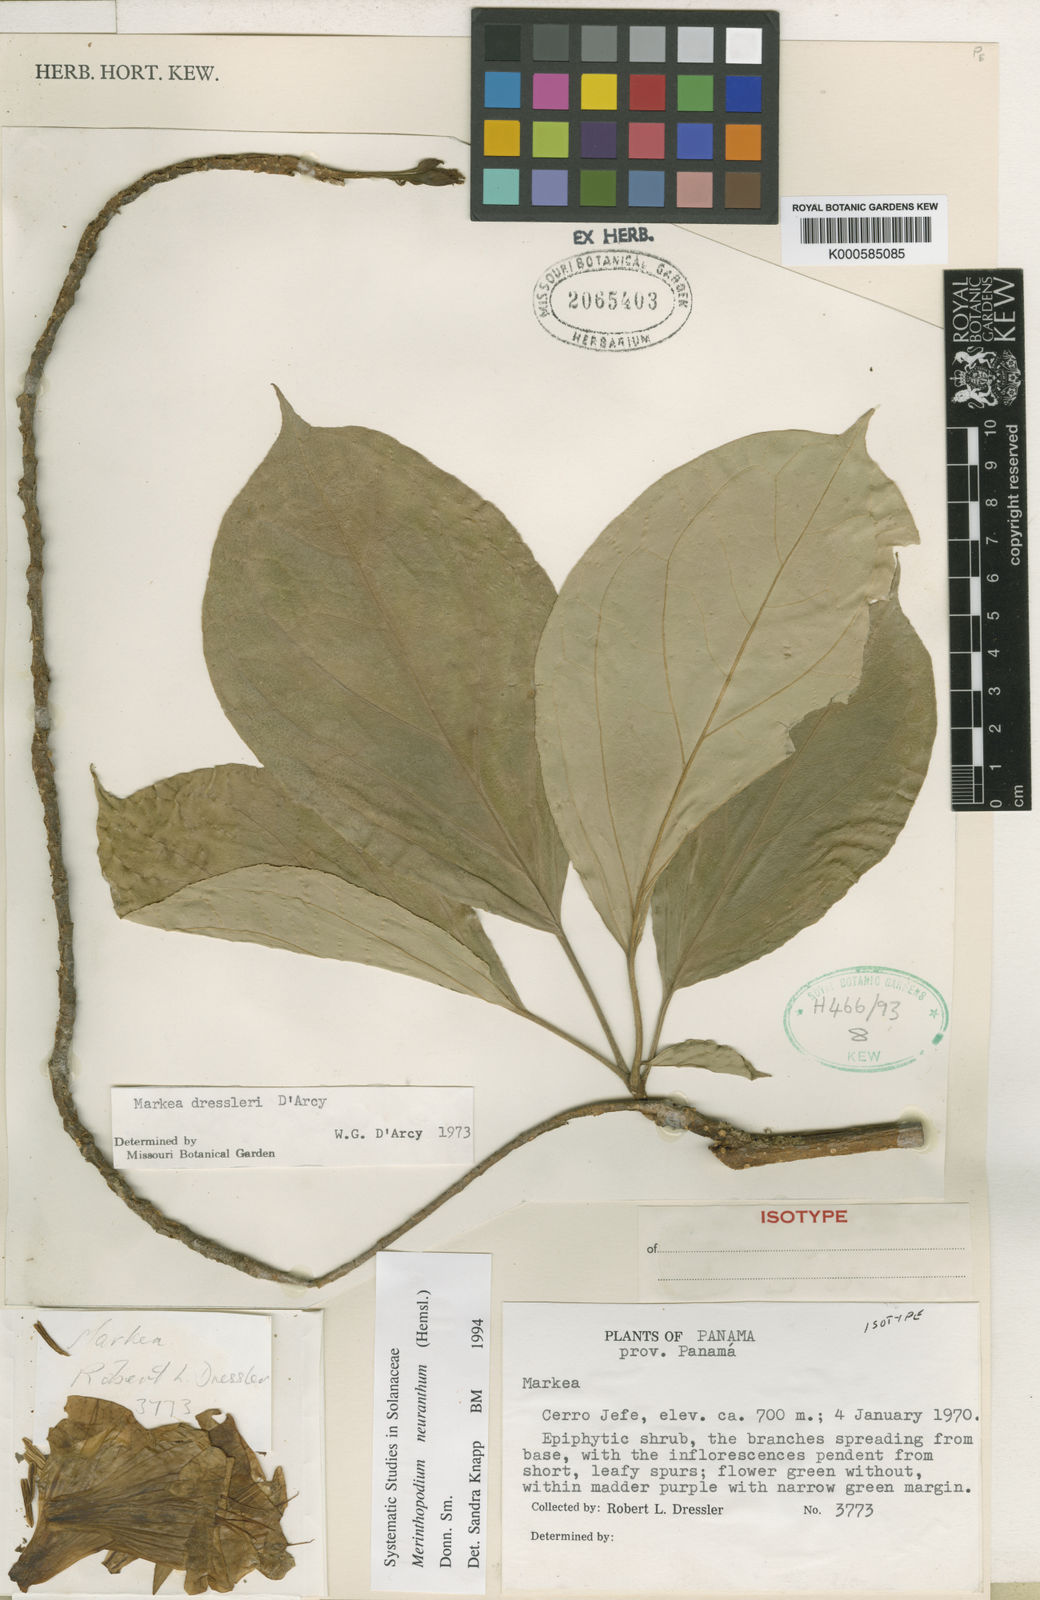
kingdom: Plantae
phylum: Tracheophyta
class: Magnoliopsida
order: Solanales
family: Solanaceae
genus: Merinthopodium
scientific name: Merinthopodium neuranthum
